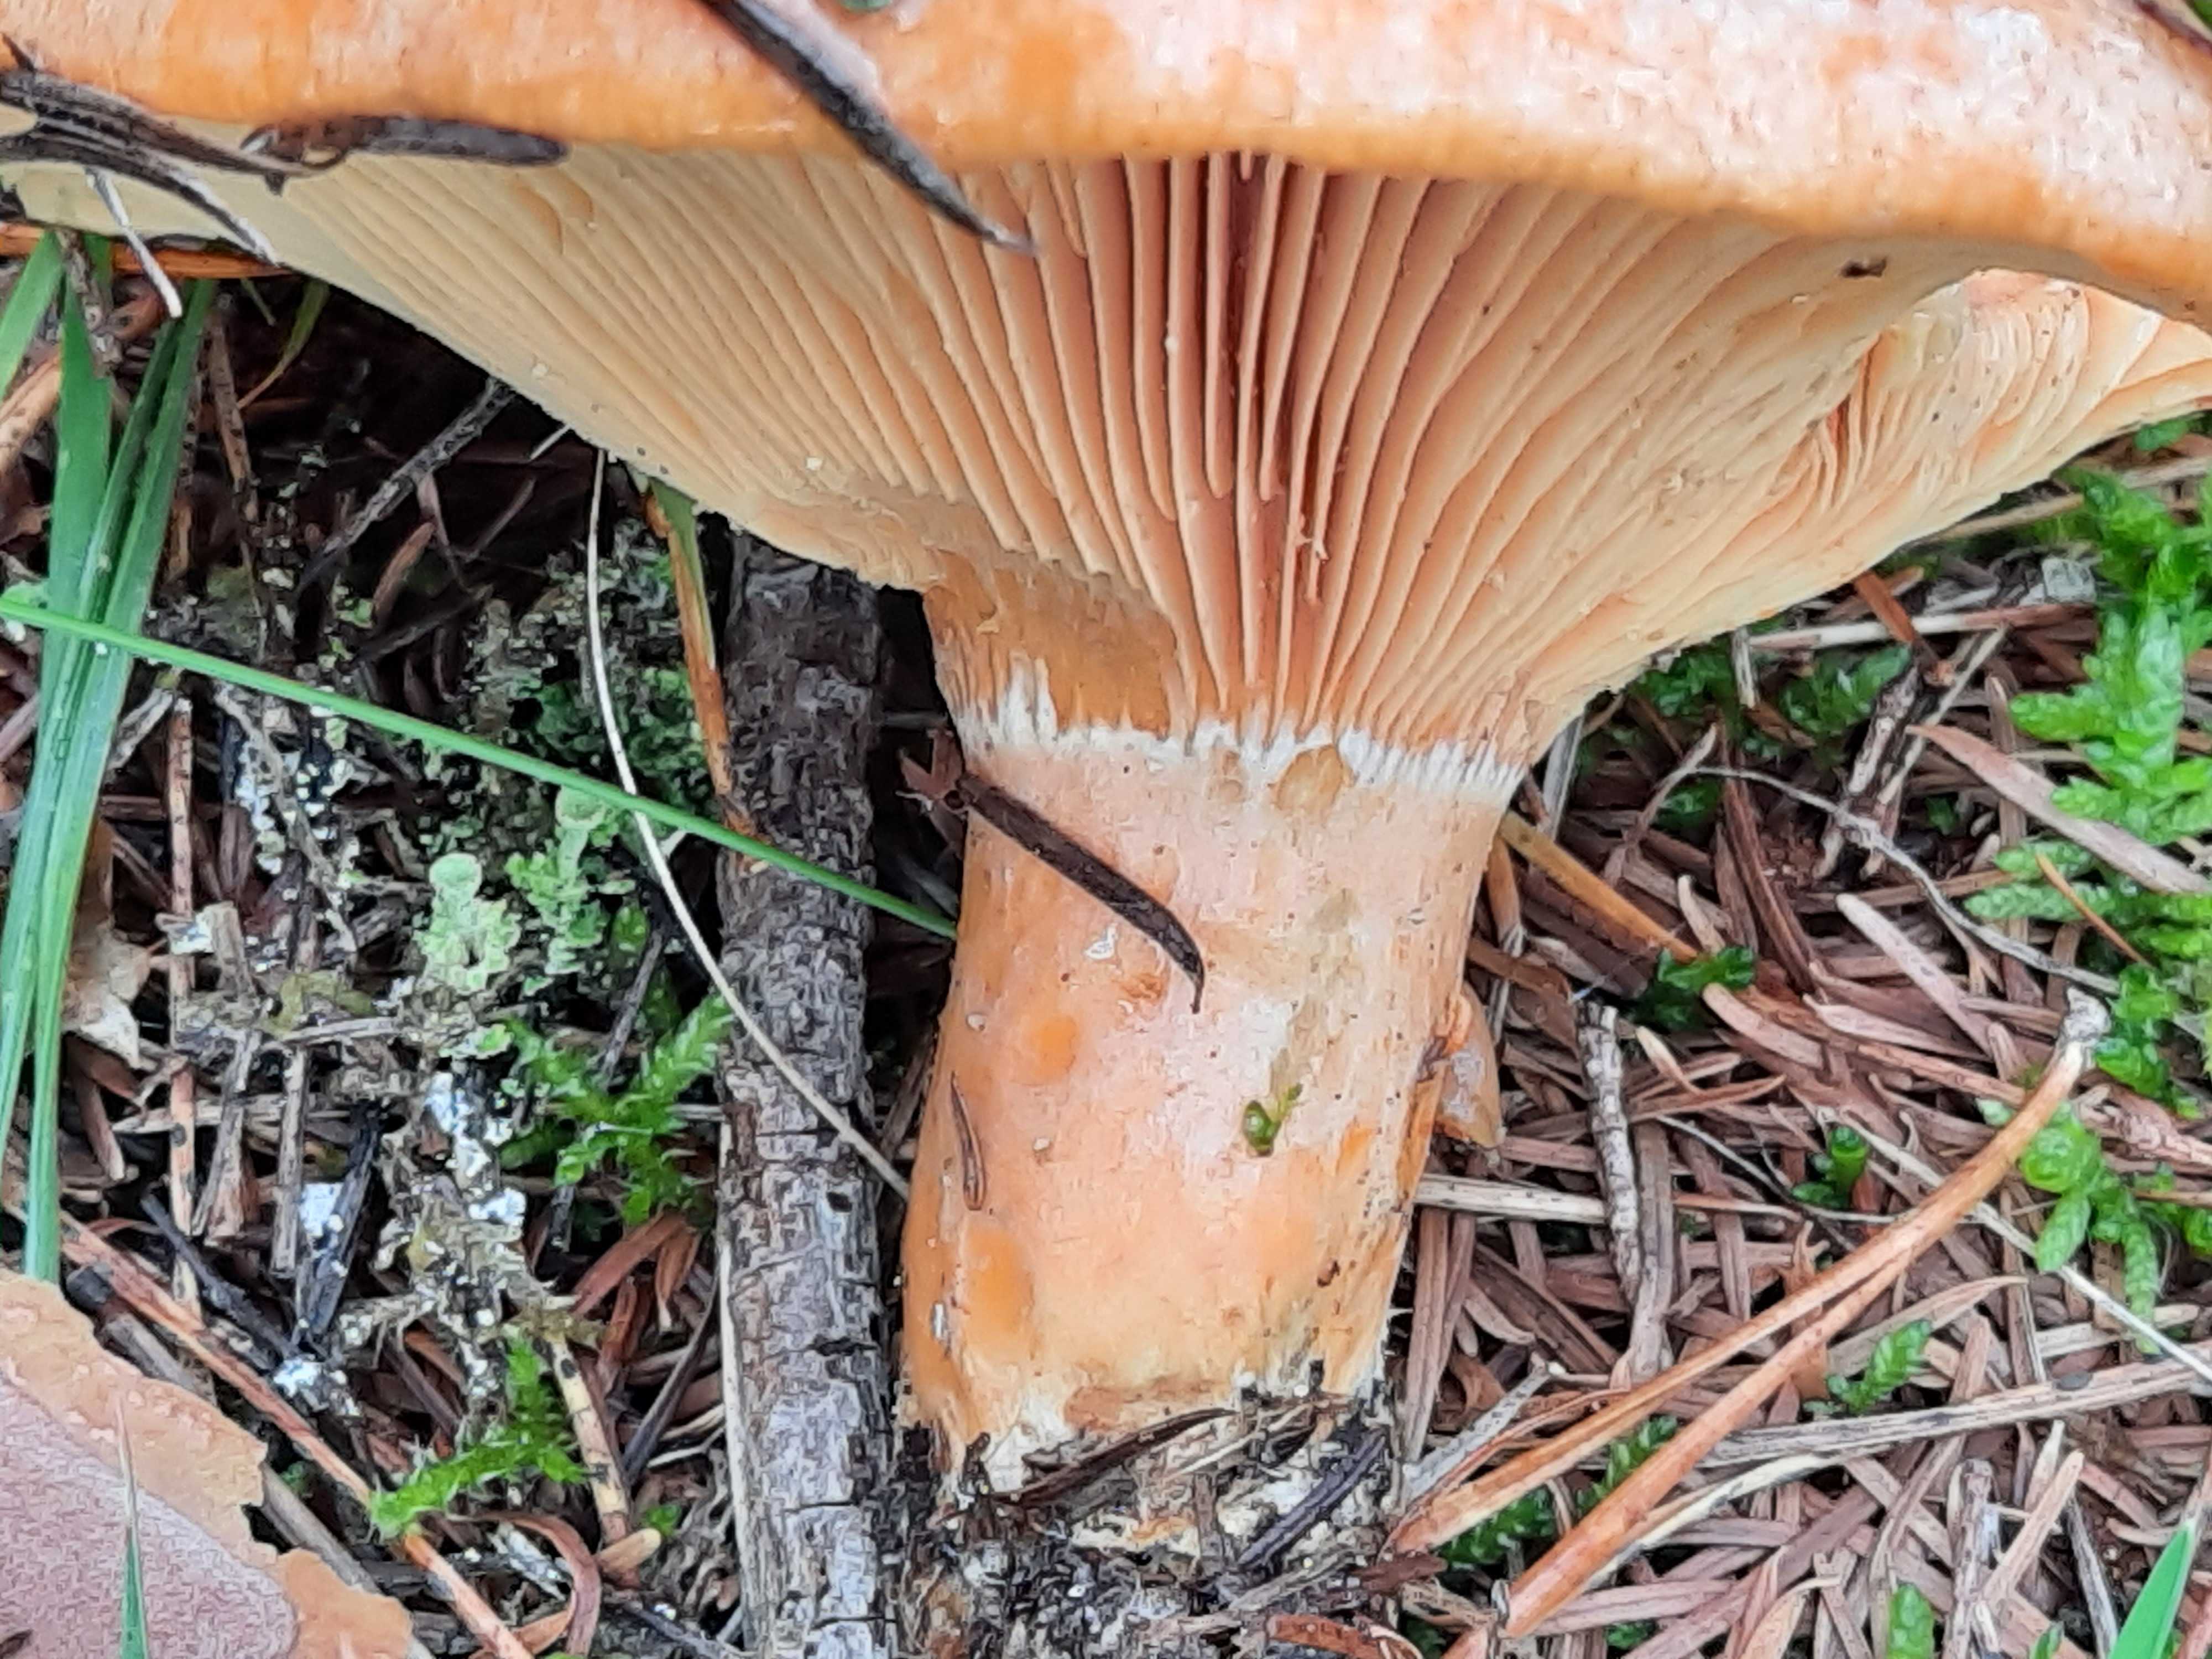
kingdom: Fungi
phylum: Basidiomycota
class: Agaricomycetes
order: Russulales
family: Russulaceae
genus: Lactarius
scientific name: Lactarius deliciosus
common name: velsmagende mælkehat
